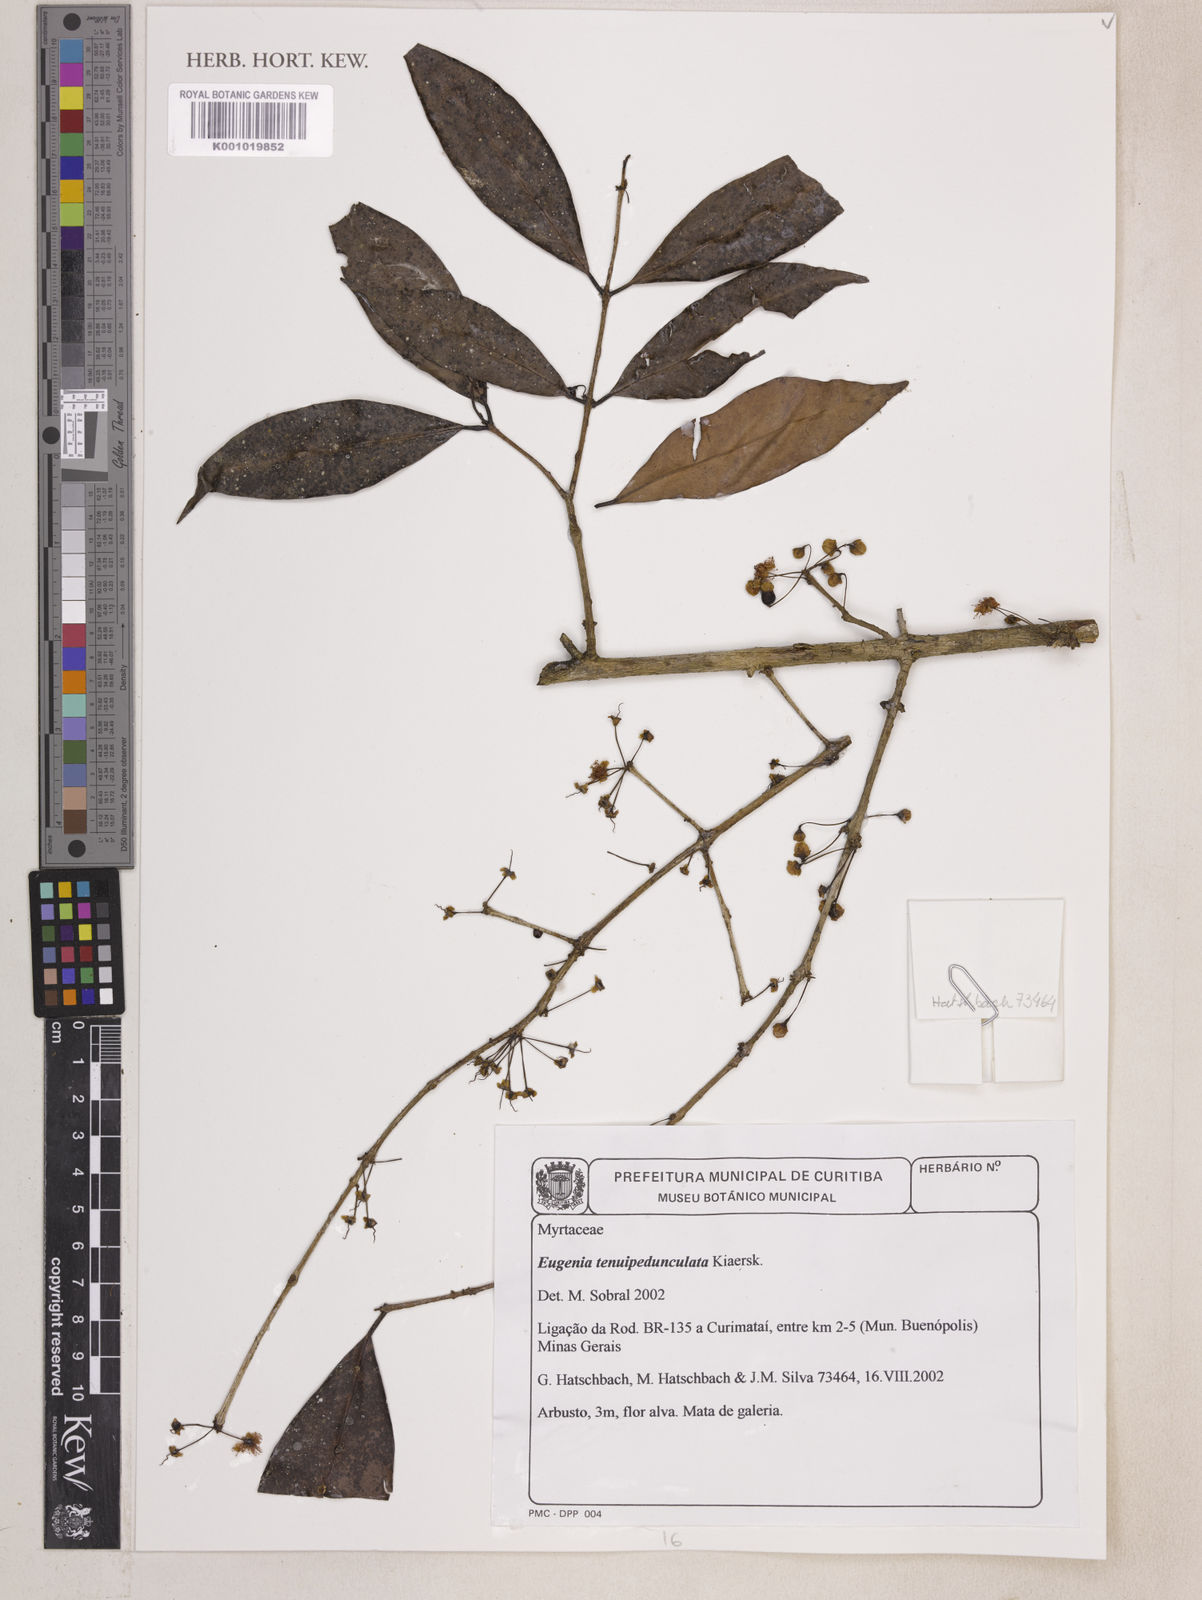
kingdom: Plantae
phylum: Tracheophyta
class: Magnoliopsida
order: Myrtales
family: Myrtaceae
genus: Eugenia
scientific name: Eugenia tenuipedunculata
